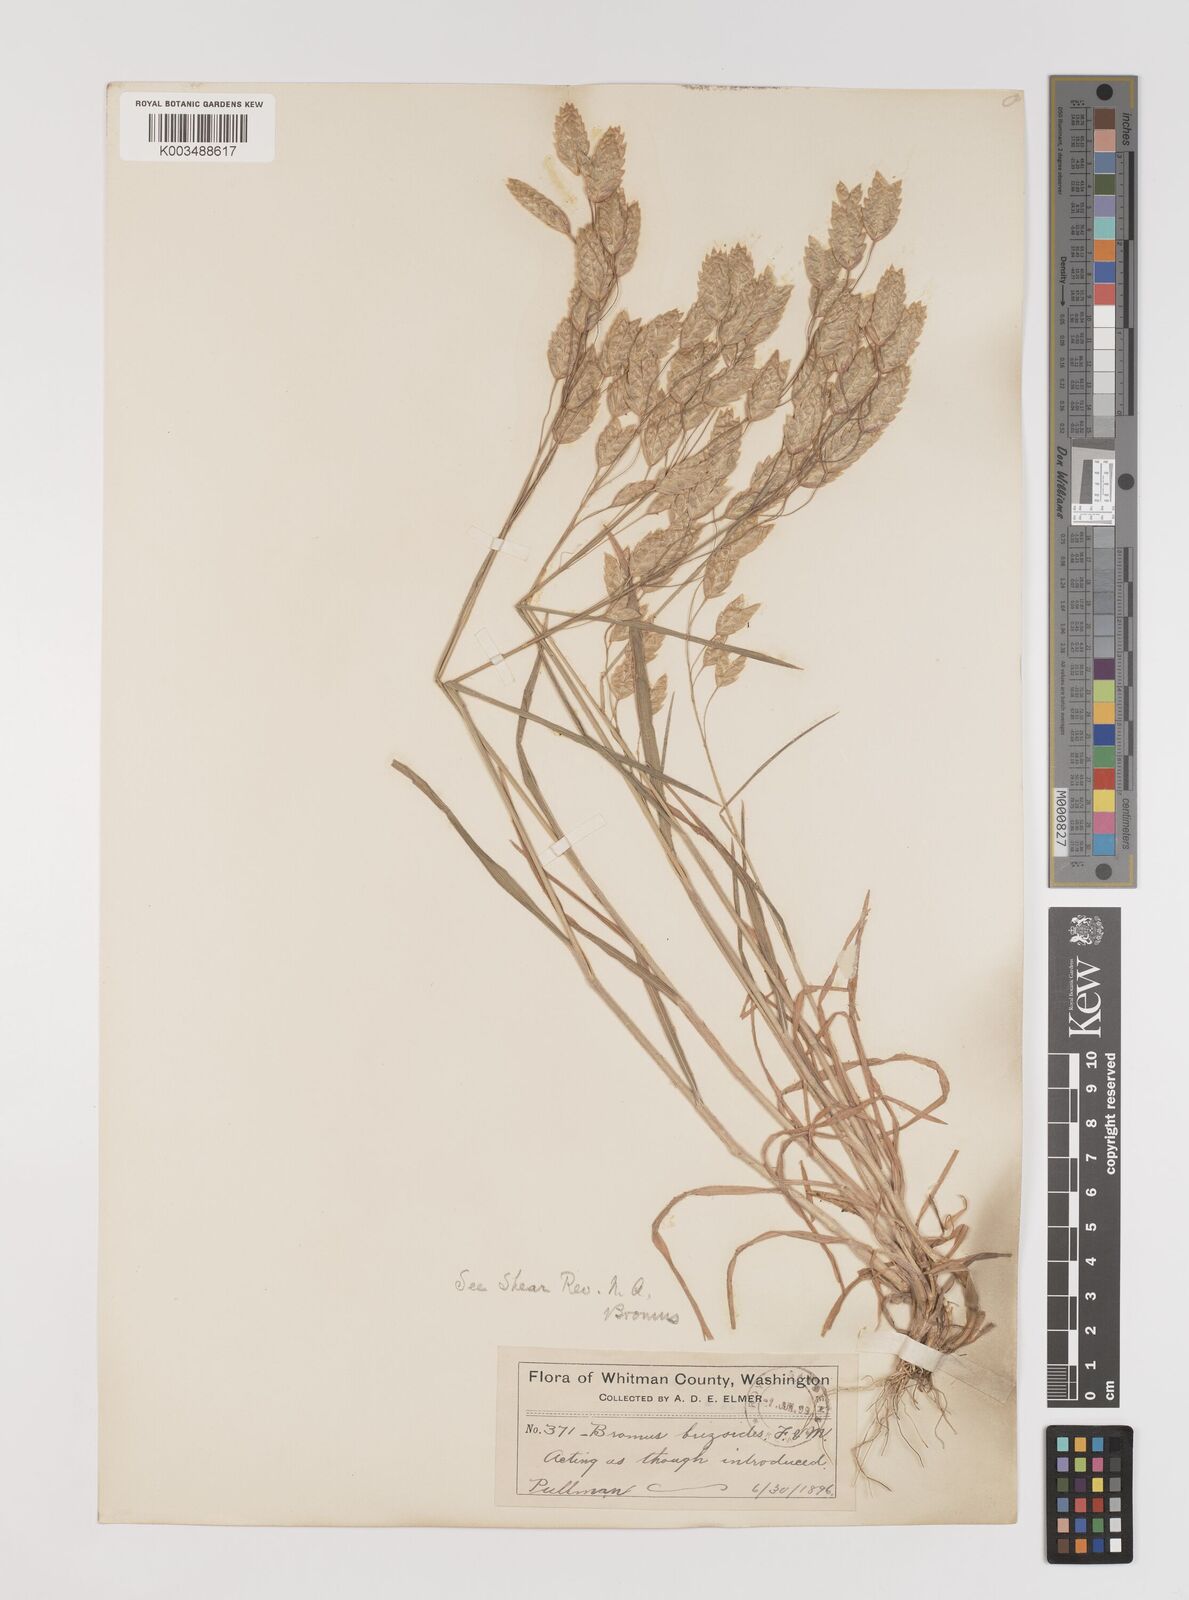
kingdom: Plantae
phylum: Tracheophyta
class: Liliopsida
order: Poales
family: Poaceae
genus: Bromus
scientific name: Bromus briziformis
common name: Rattlesnake brome
